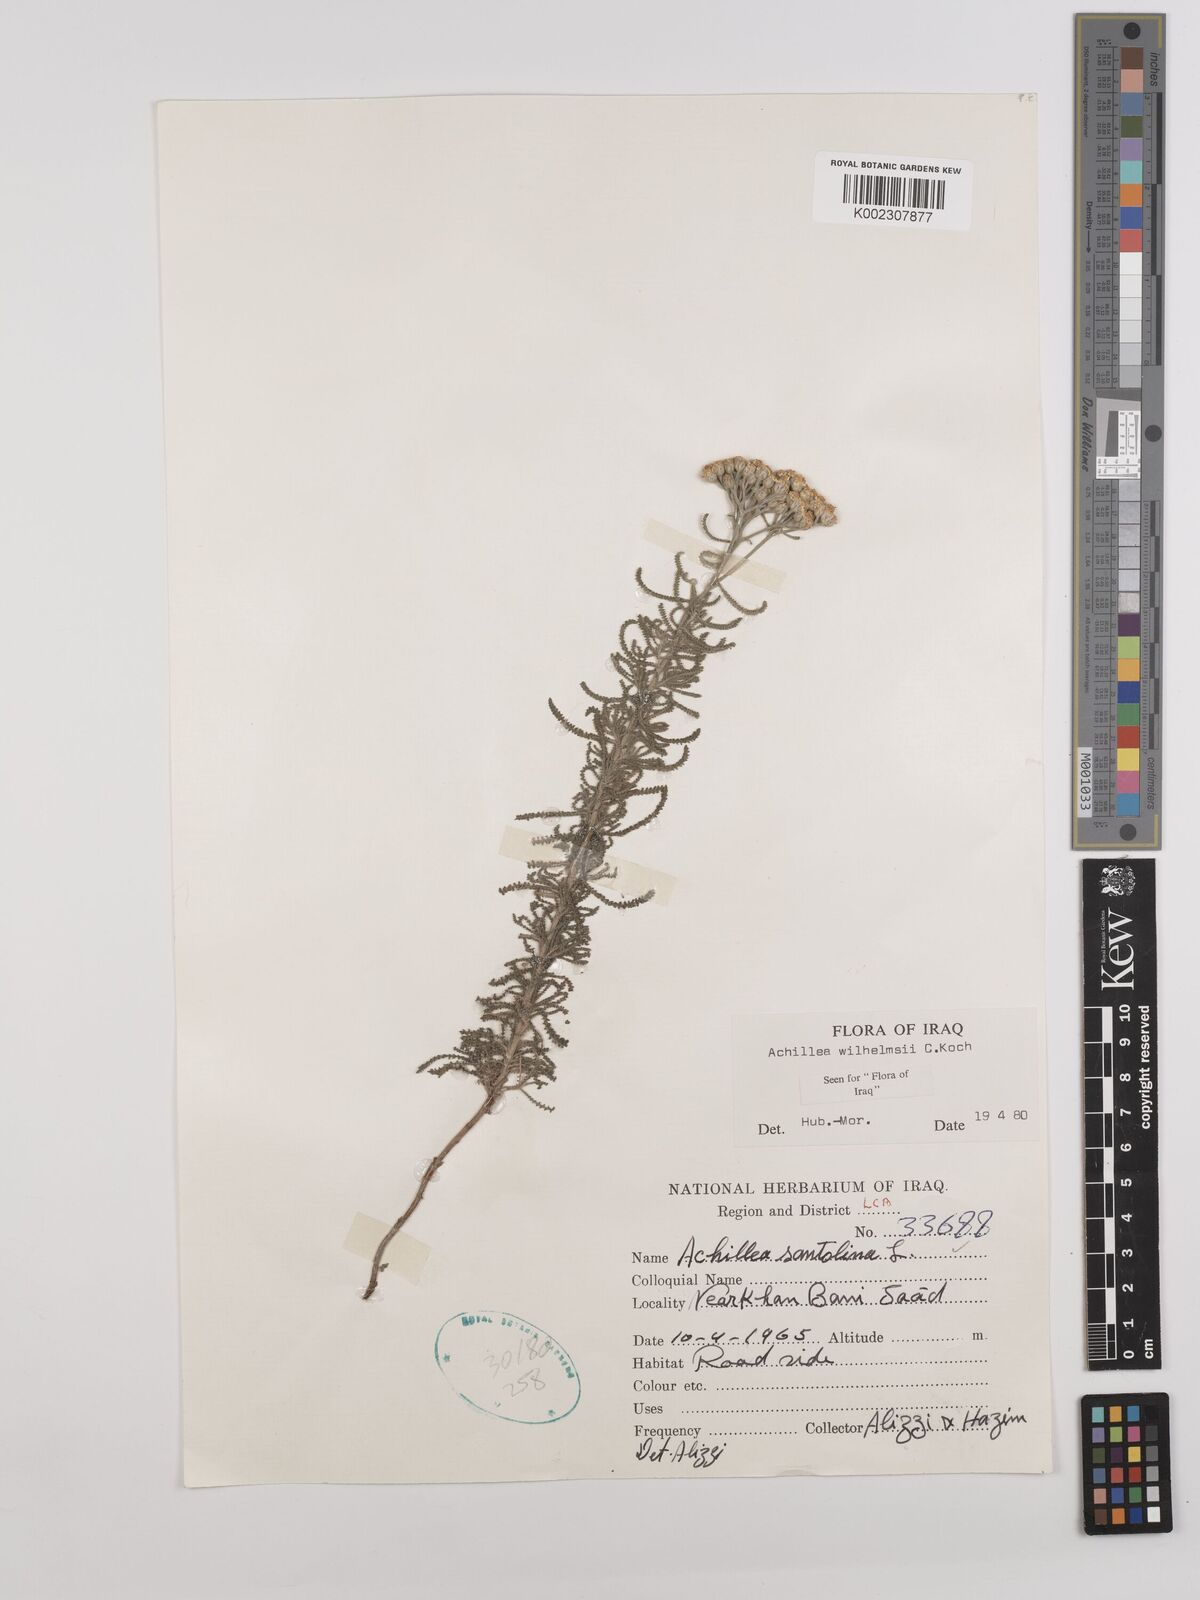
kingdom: Plantae
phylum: Tracheophyta
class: Magnoliopsida
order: Asterales
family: Asteraceae
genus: Achillea
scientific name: Achillea wilhelmsii
